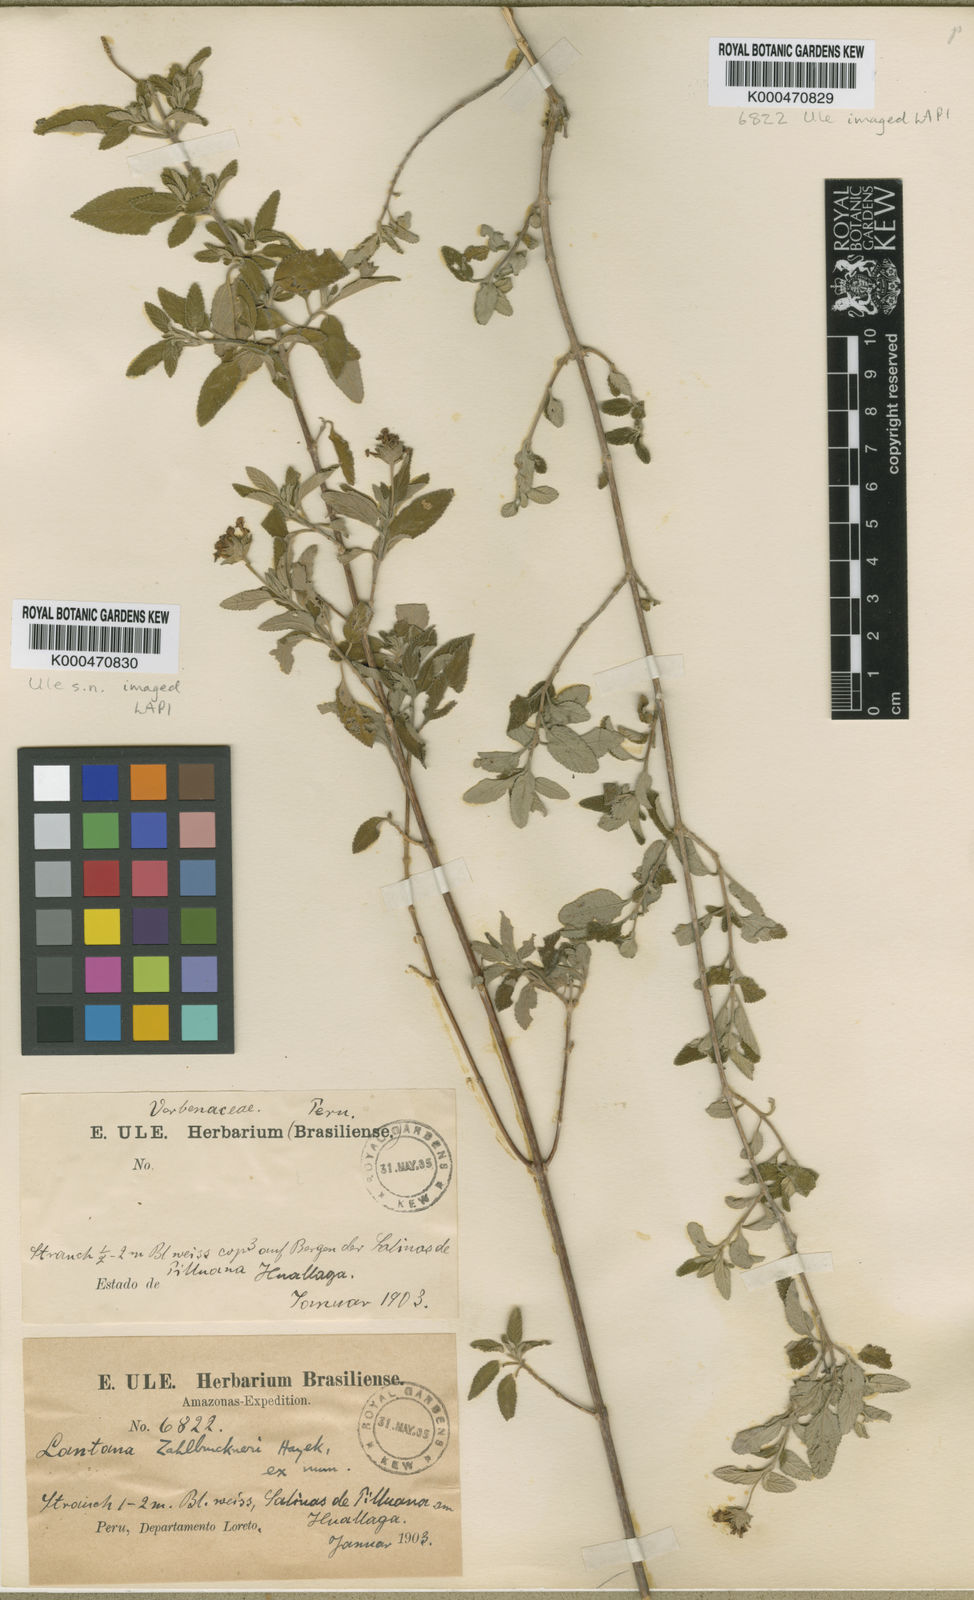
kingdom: Plantae
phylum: Tracheophyta
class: Magnoliopsida
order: Lamiales
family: Verbenaceae
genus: Lantana
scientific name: Lantana zahlbruckneri
